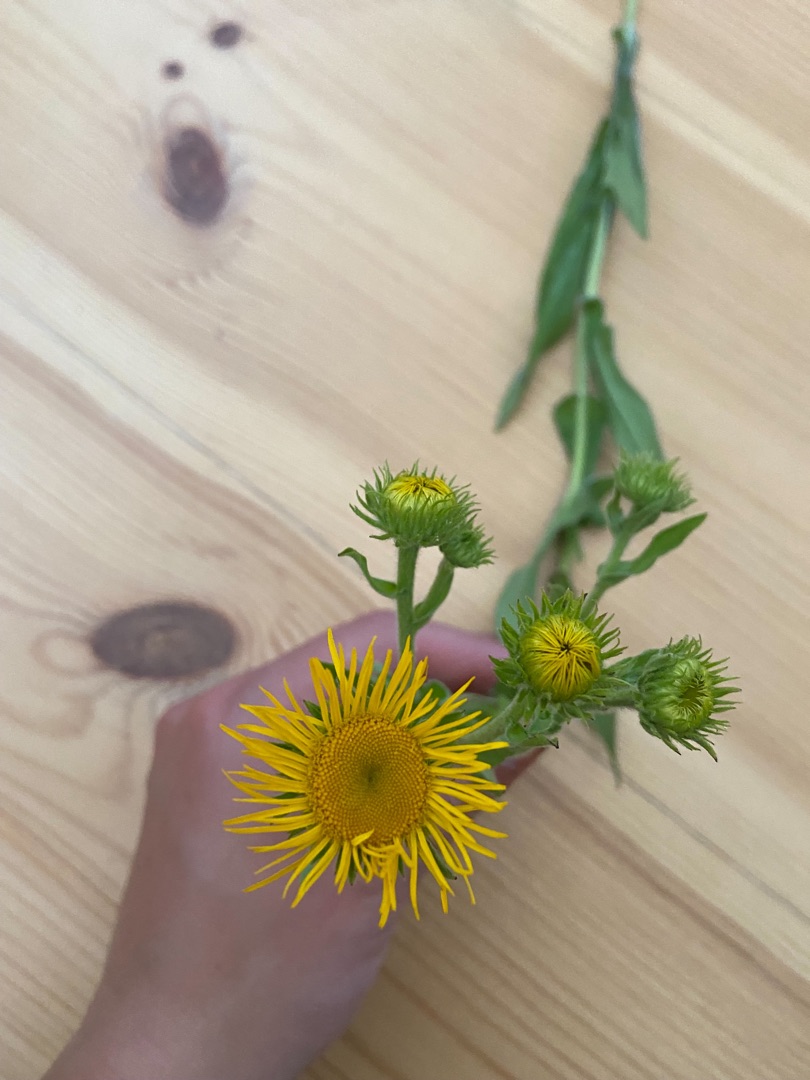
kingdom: Plantae
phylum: Tracheophyta
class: Magnoliopsida
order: Asterales
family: Asteraceae
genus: Pentanema
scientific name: Pentanema britannicum
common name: Soløje-alant
